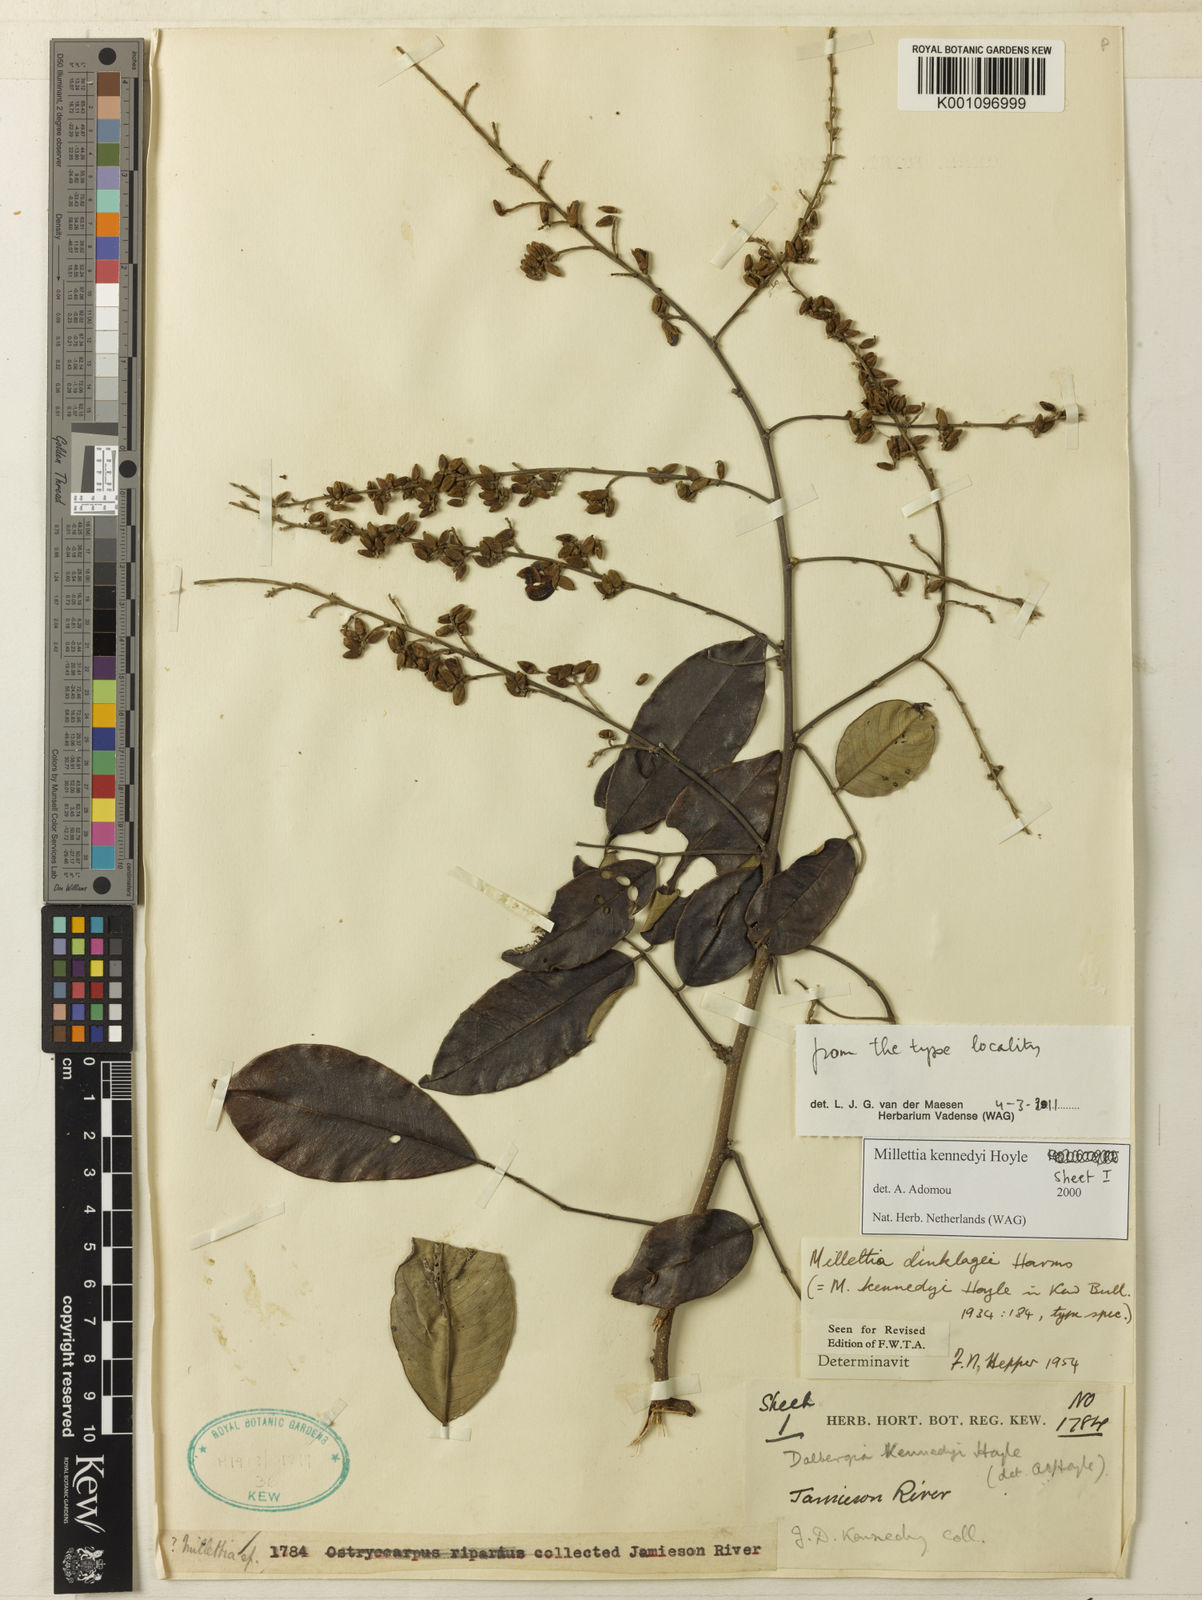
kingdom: Plantae
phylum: Tracheophyta
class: Magnoliopsida
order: Fabales
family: Fabaceae
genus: Millettia
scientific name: Millettia kennedyi
